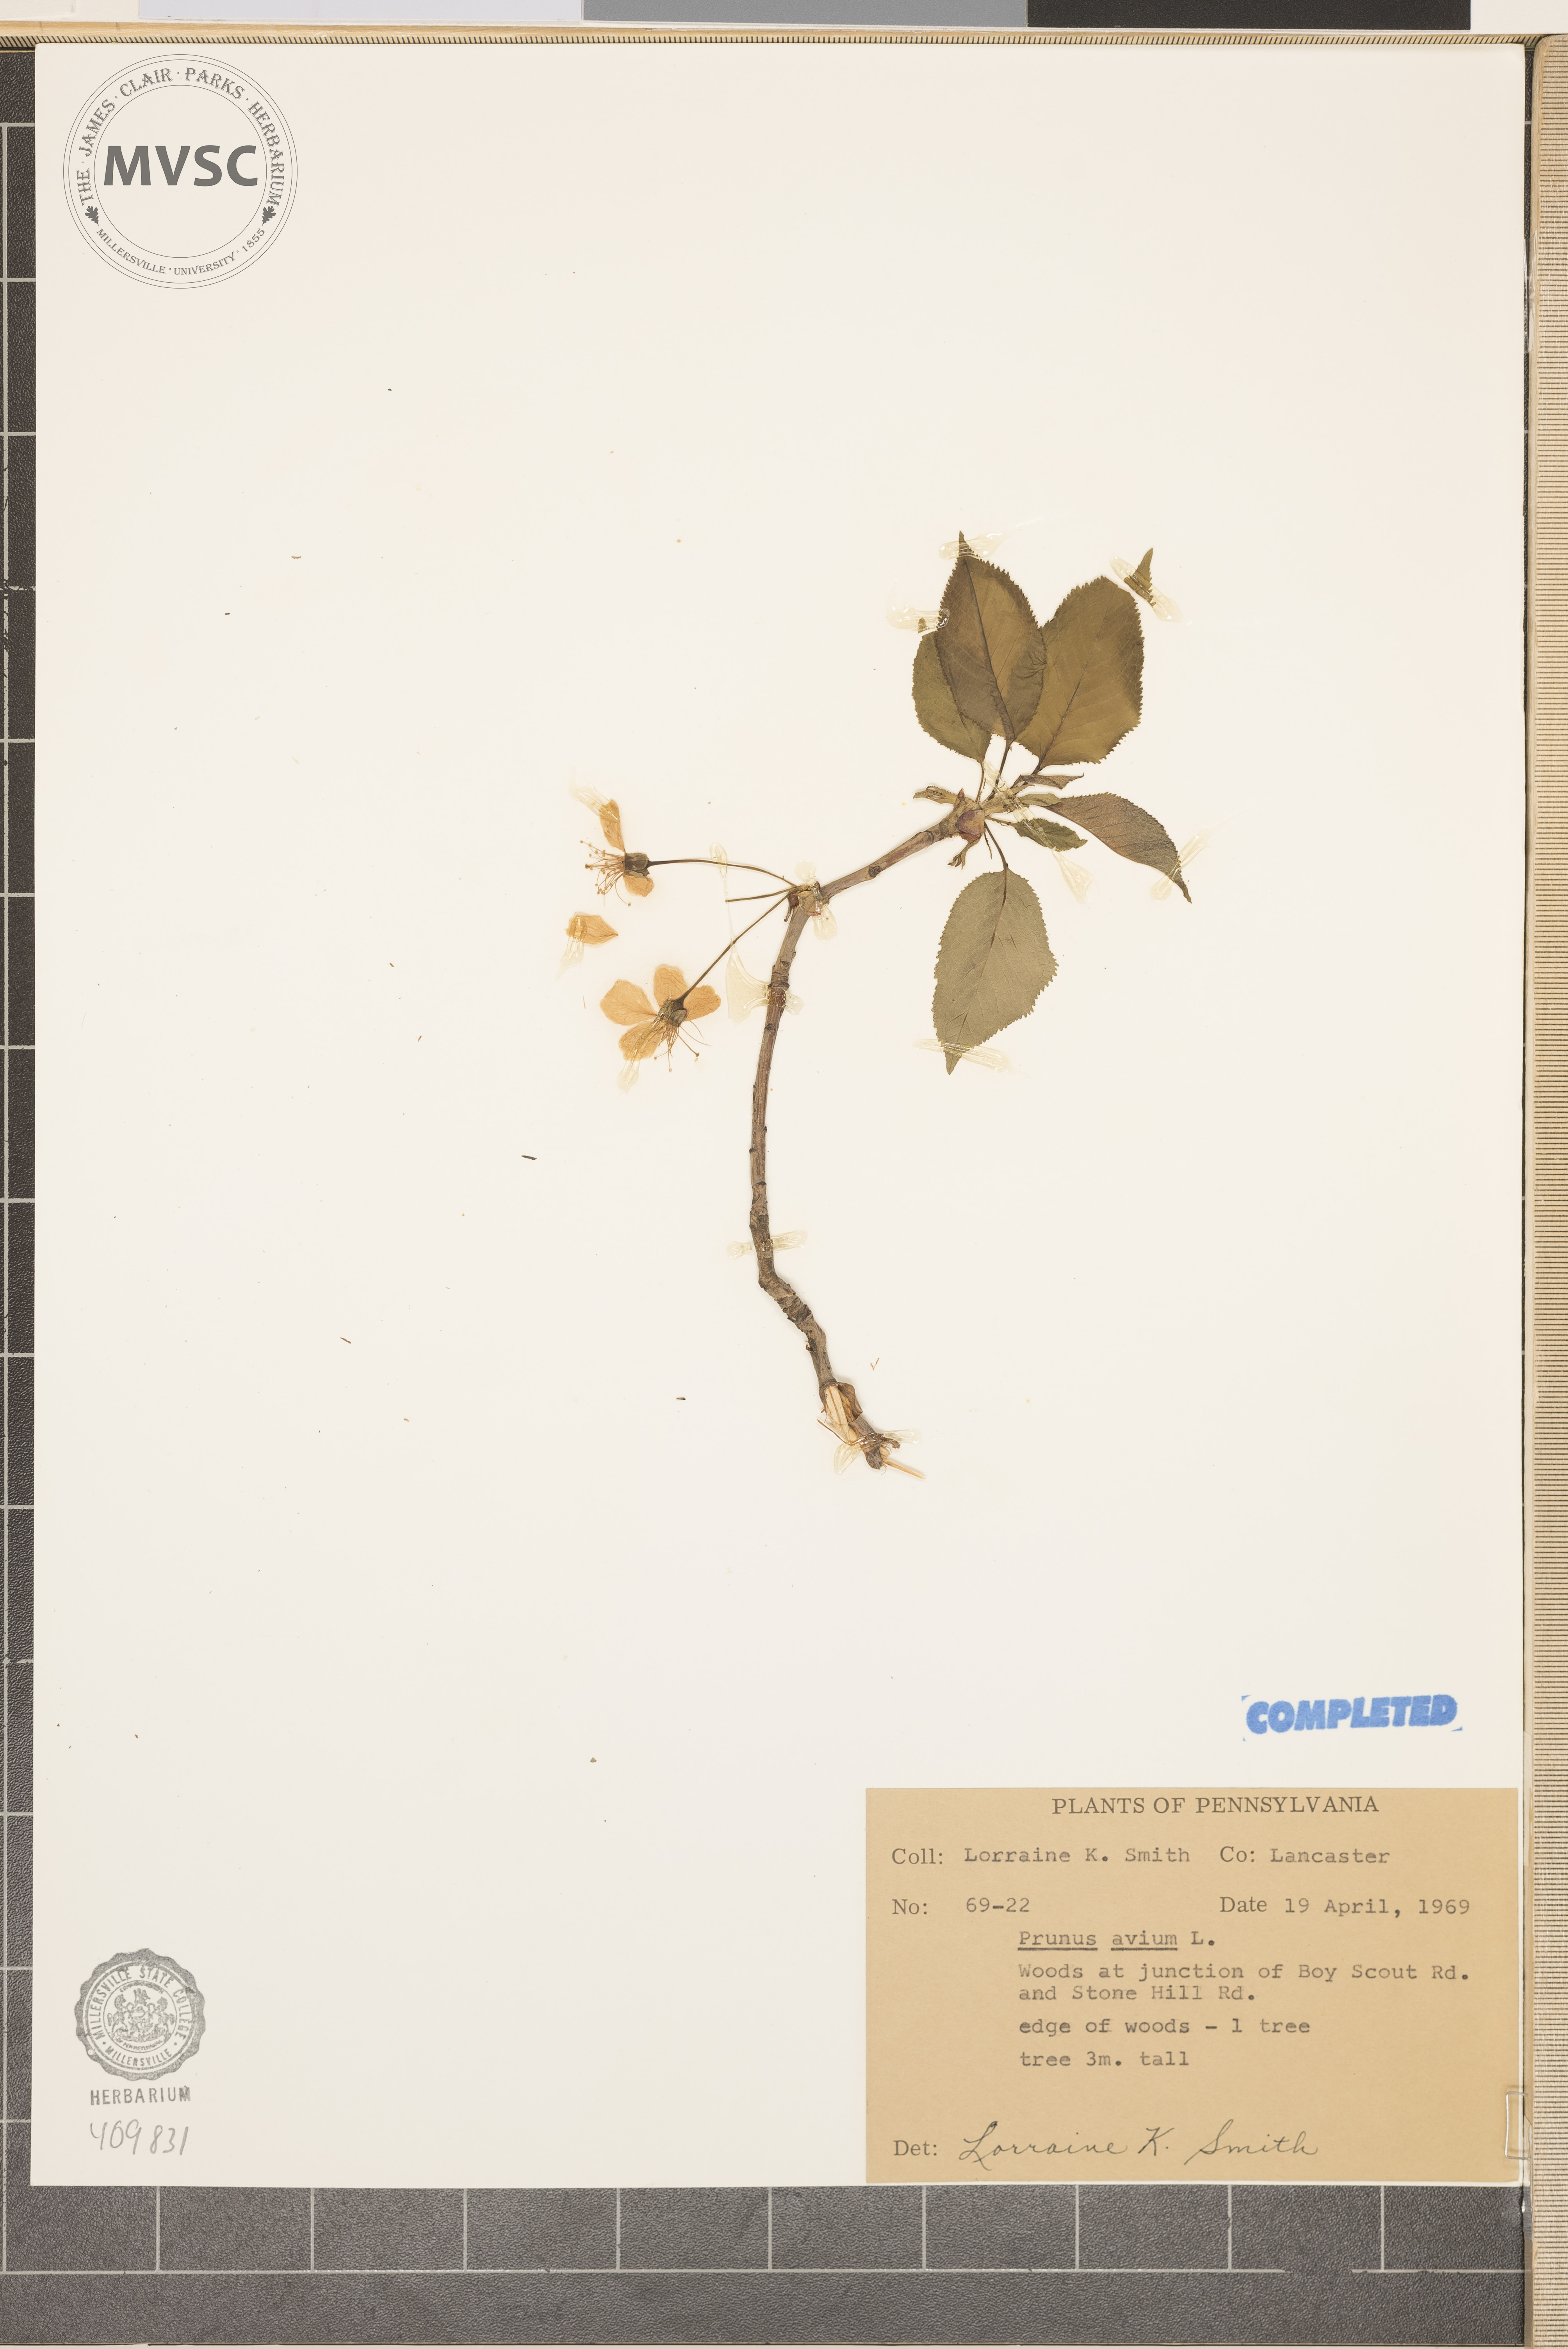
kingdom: Plantae
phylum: Tracheophyta
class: Magnoliopsida
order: Rosales
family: Rosaceae
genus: Prunus
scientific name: Prunus avium
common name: Sweet cherry
